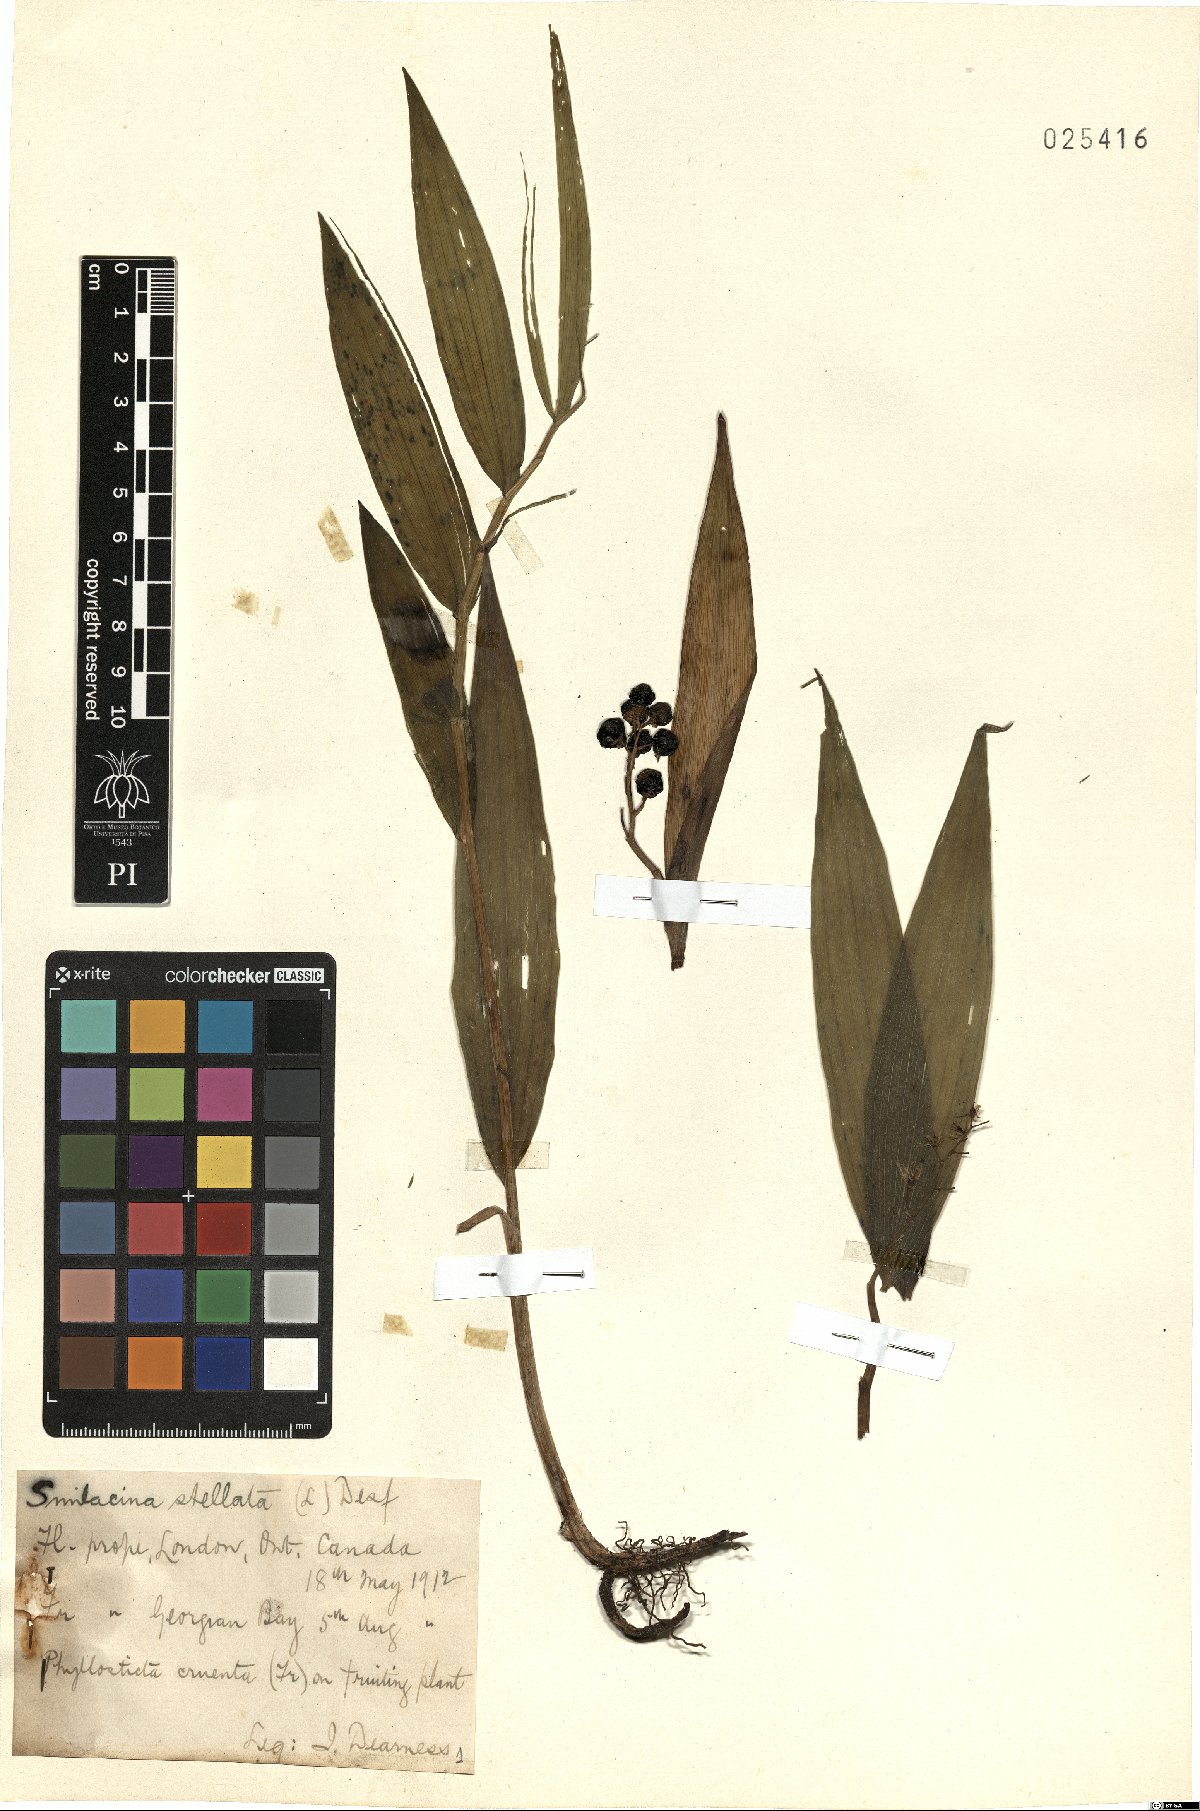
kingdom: Plantae
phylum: Tracheophyta
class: Liliopsida
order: Asparagales
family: Asparagaceae
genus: Maianthemum
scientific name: Maianthemum stellatum
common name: Little false solomon's seal
